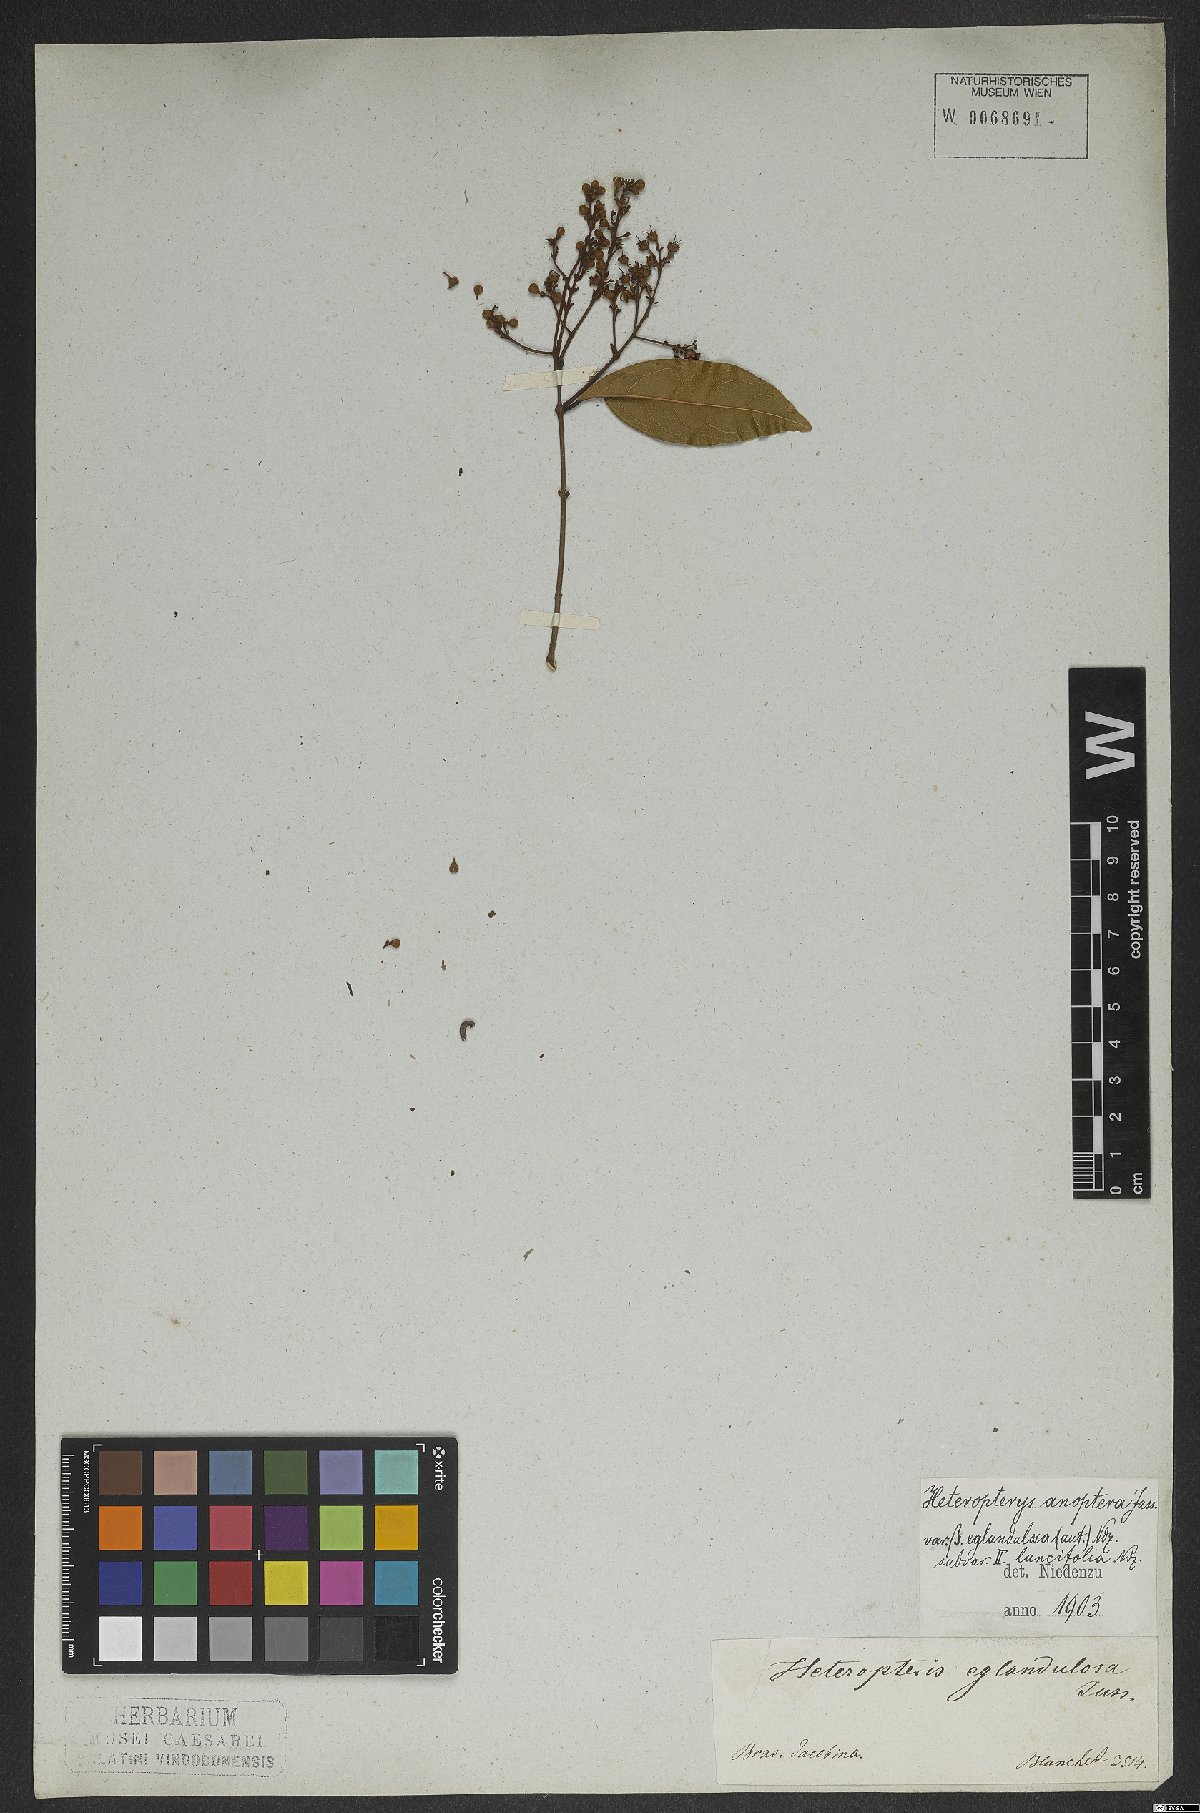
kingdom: Plantae
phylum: Tracheophyta
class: Magnoliopsida
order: Malpighiales
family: Malpighiaceae
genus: Heteropterys
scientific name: Heteropterys anoptera
